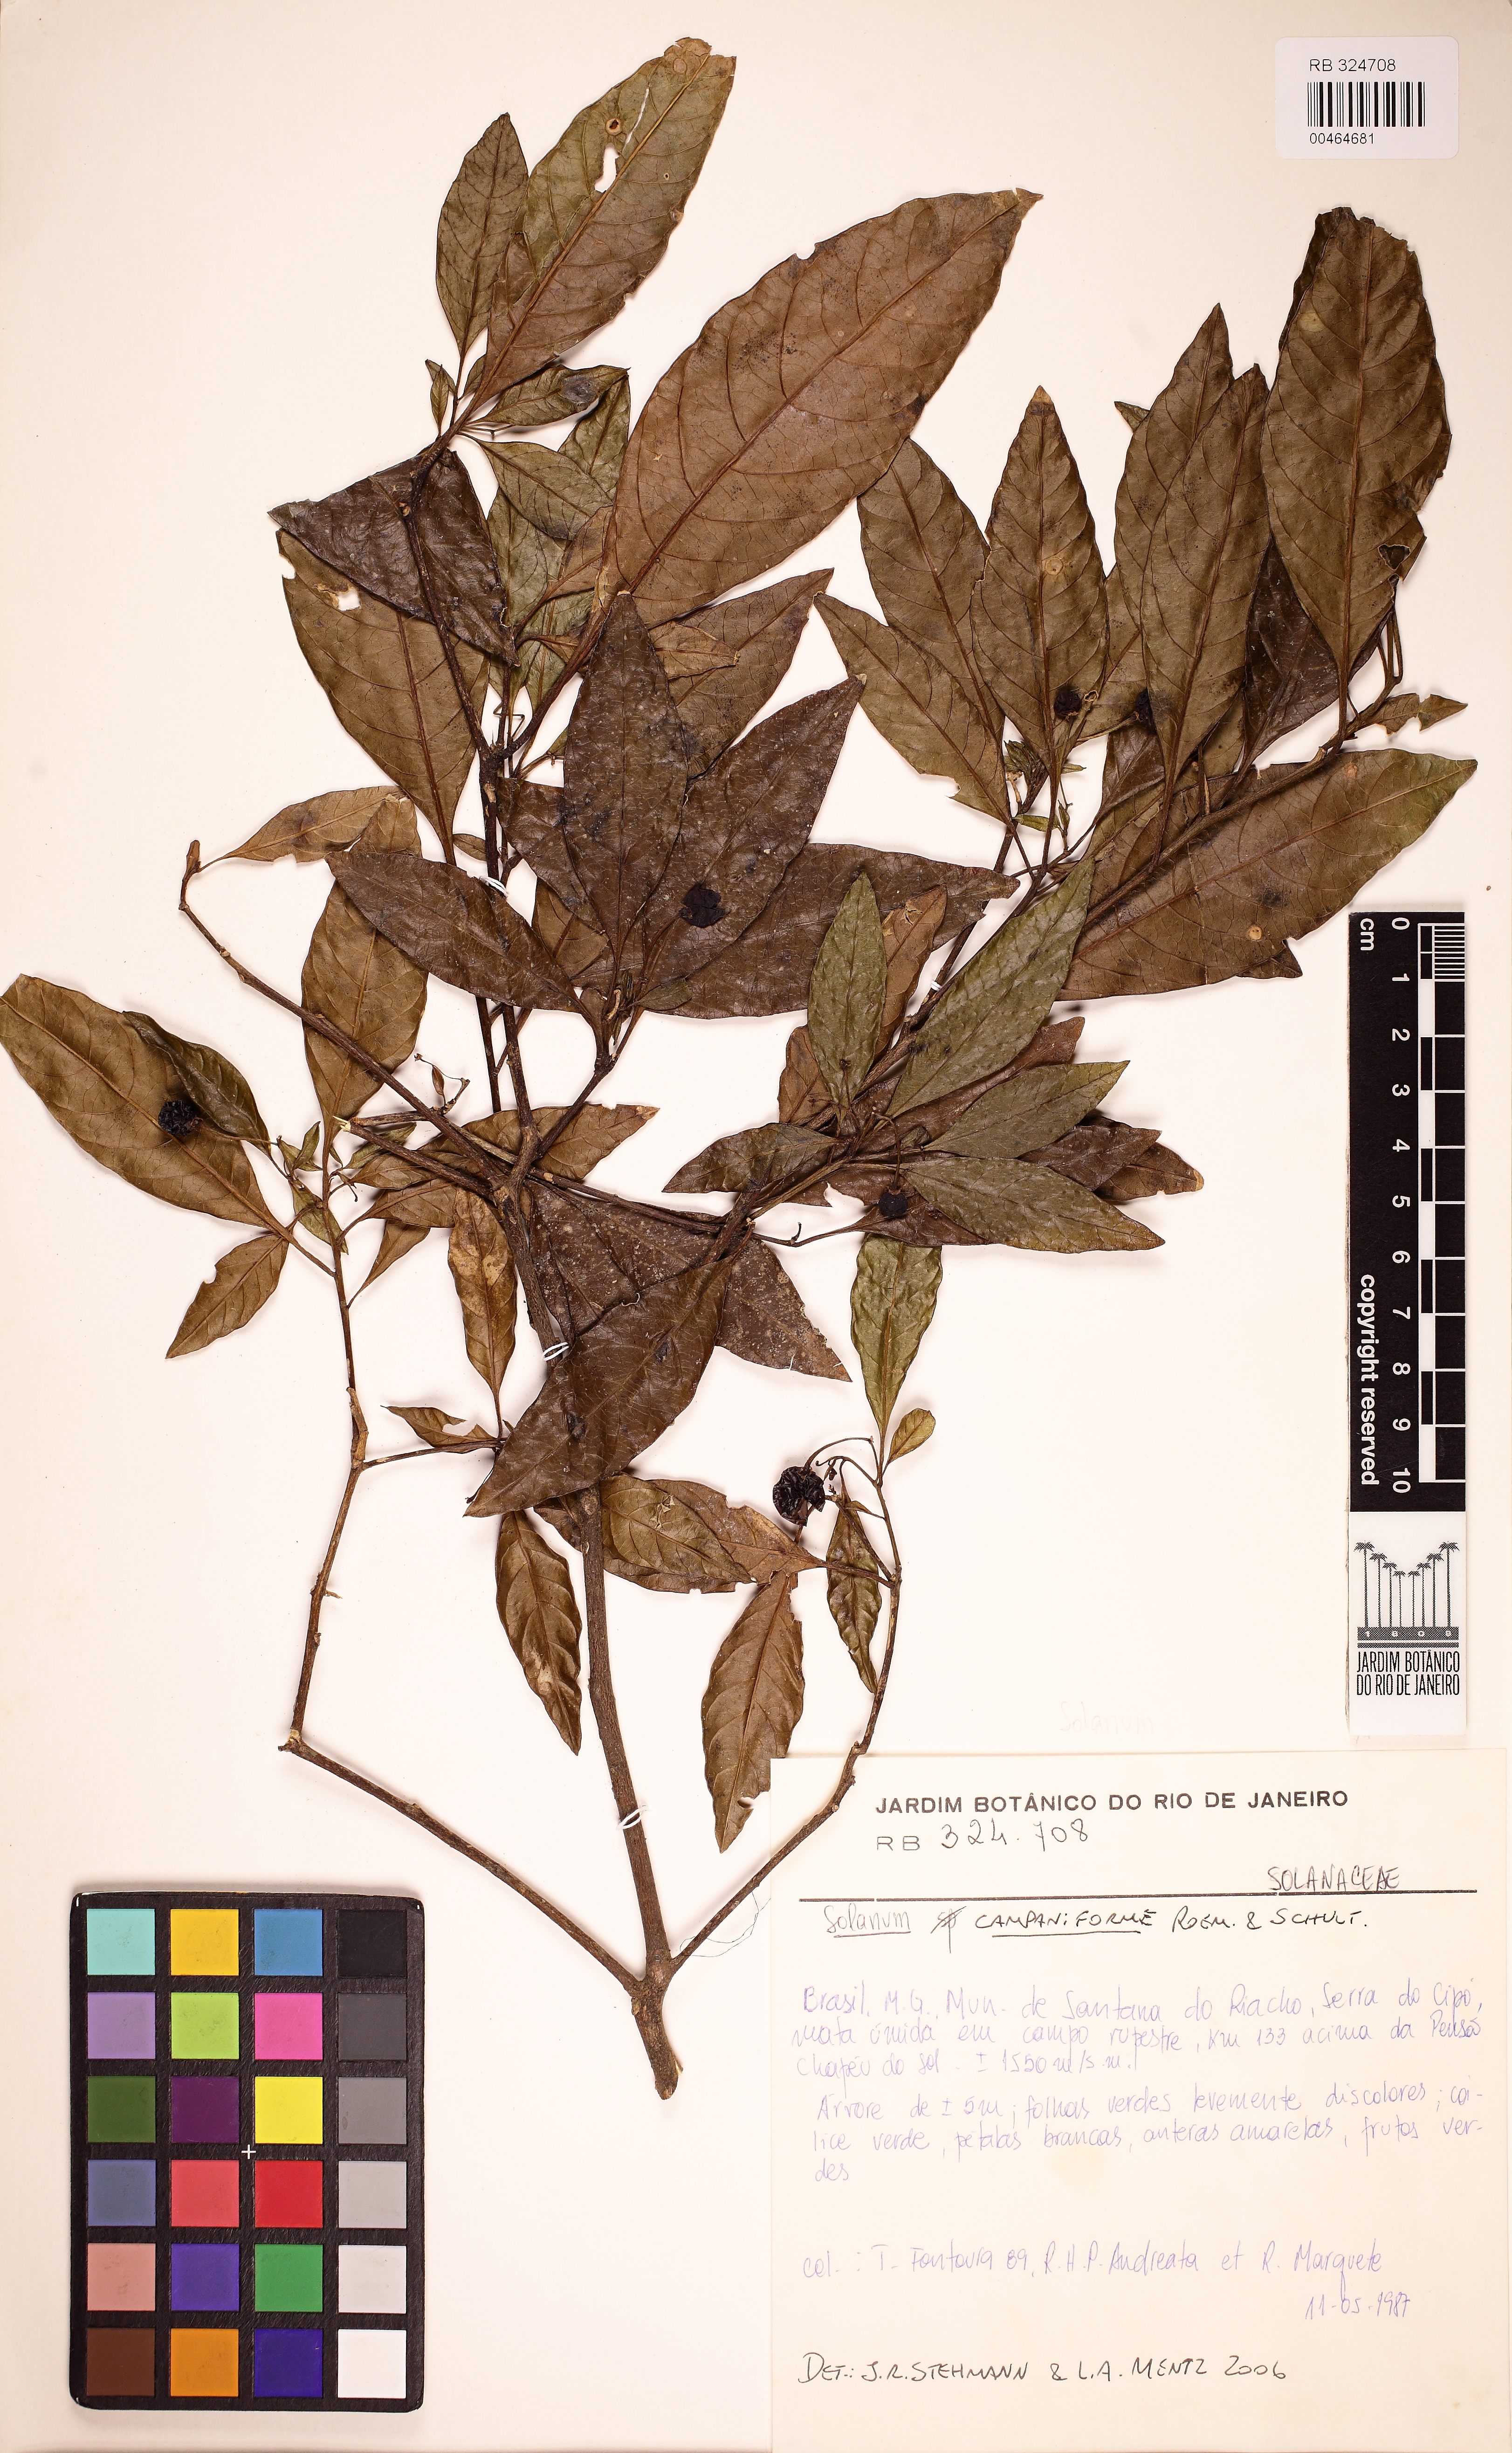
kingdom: Plantae
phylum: Tracheophyta
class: Magnoliopsida
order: Solanales
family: Solanaceae
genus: Solanum
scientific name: Solanum campaniforme
